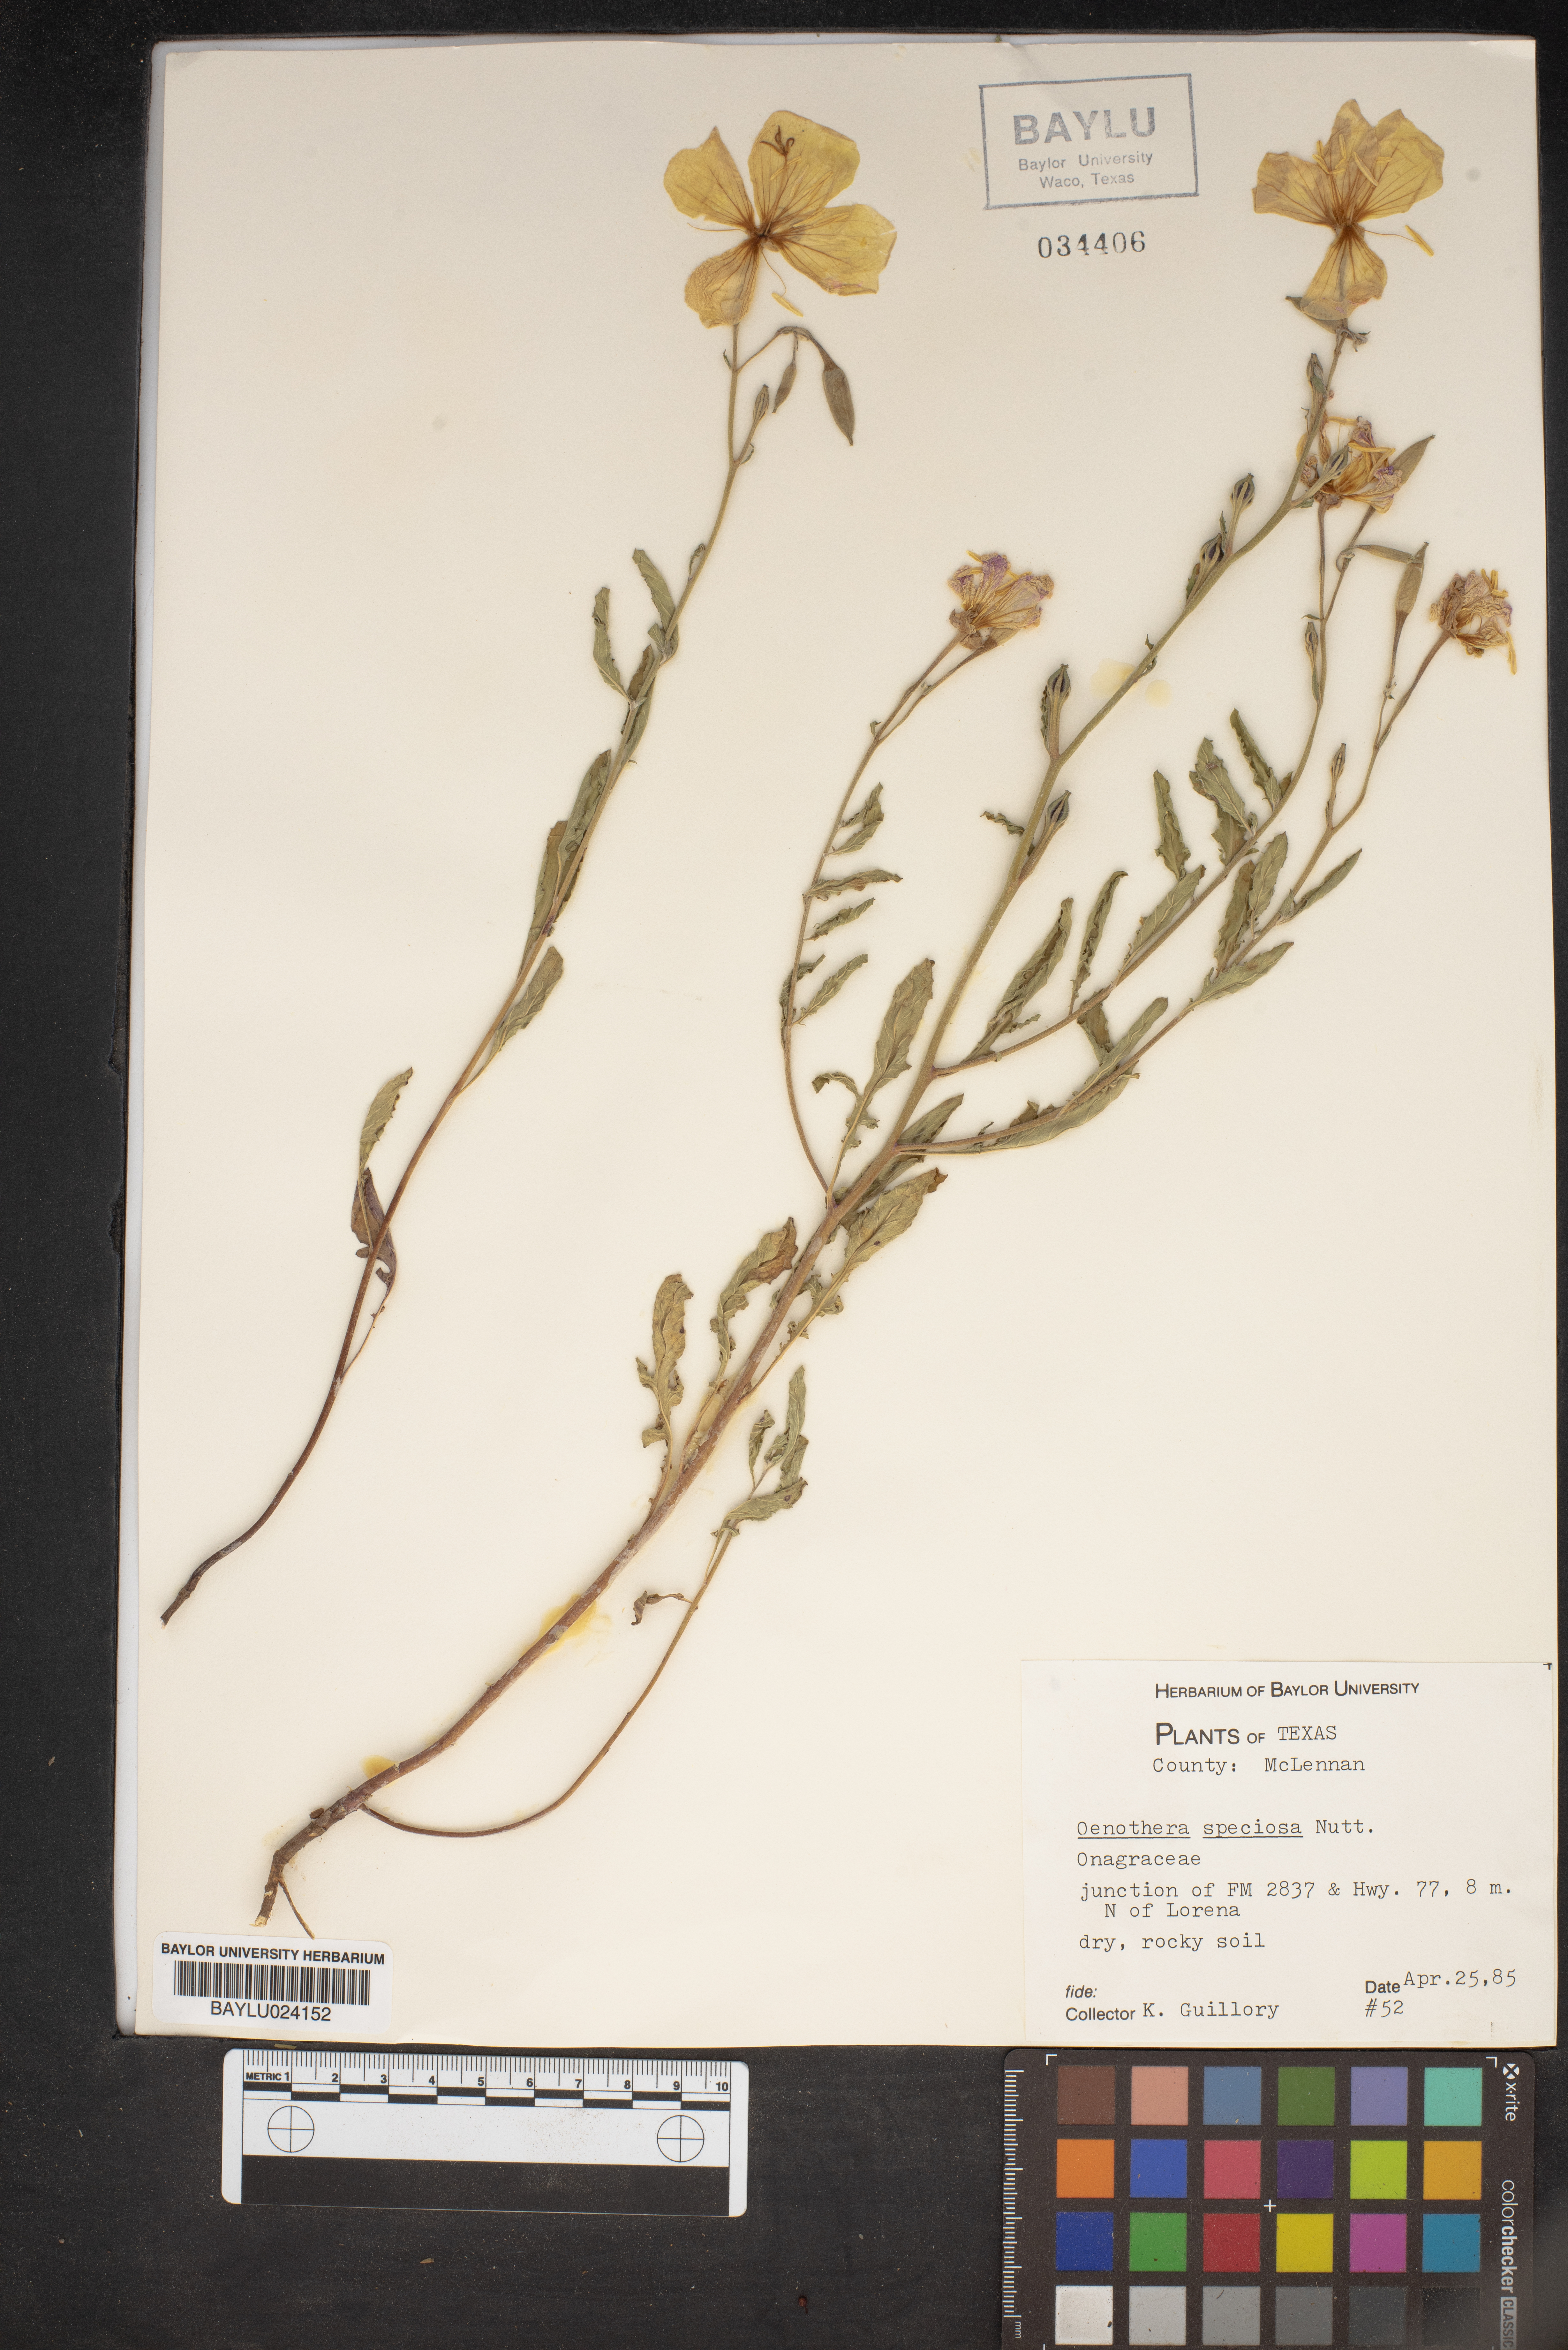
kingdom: Plantae
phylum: Tracheophyta
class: Magnoliopsida
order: Myrtales
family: Onagraceae
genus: Oenothera
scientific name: Oenothera speciosa
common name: White evening-primrose
